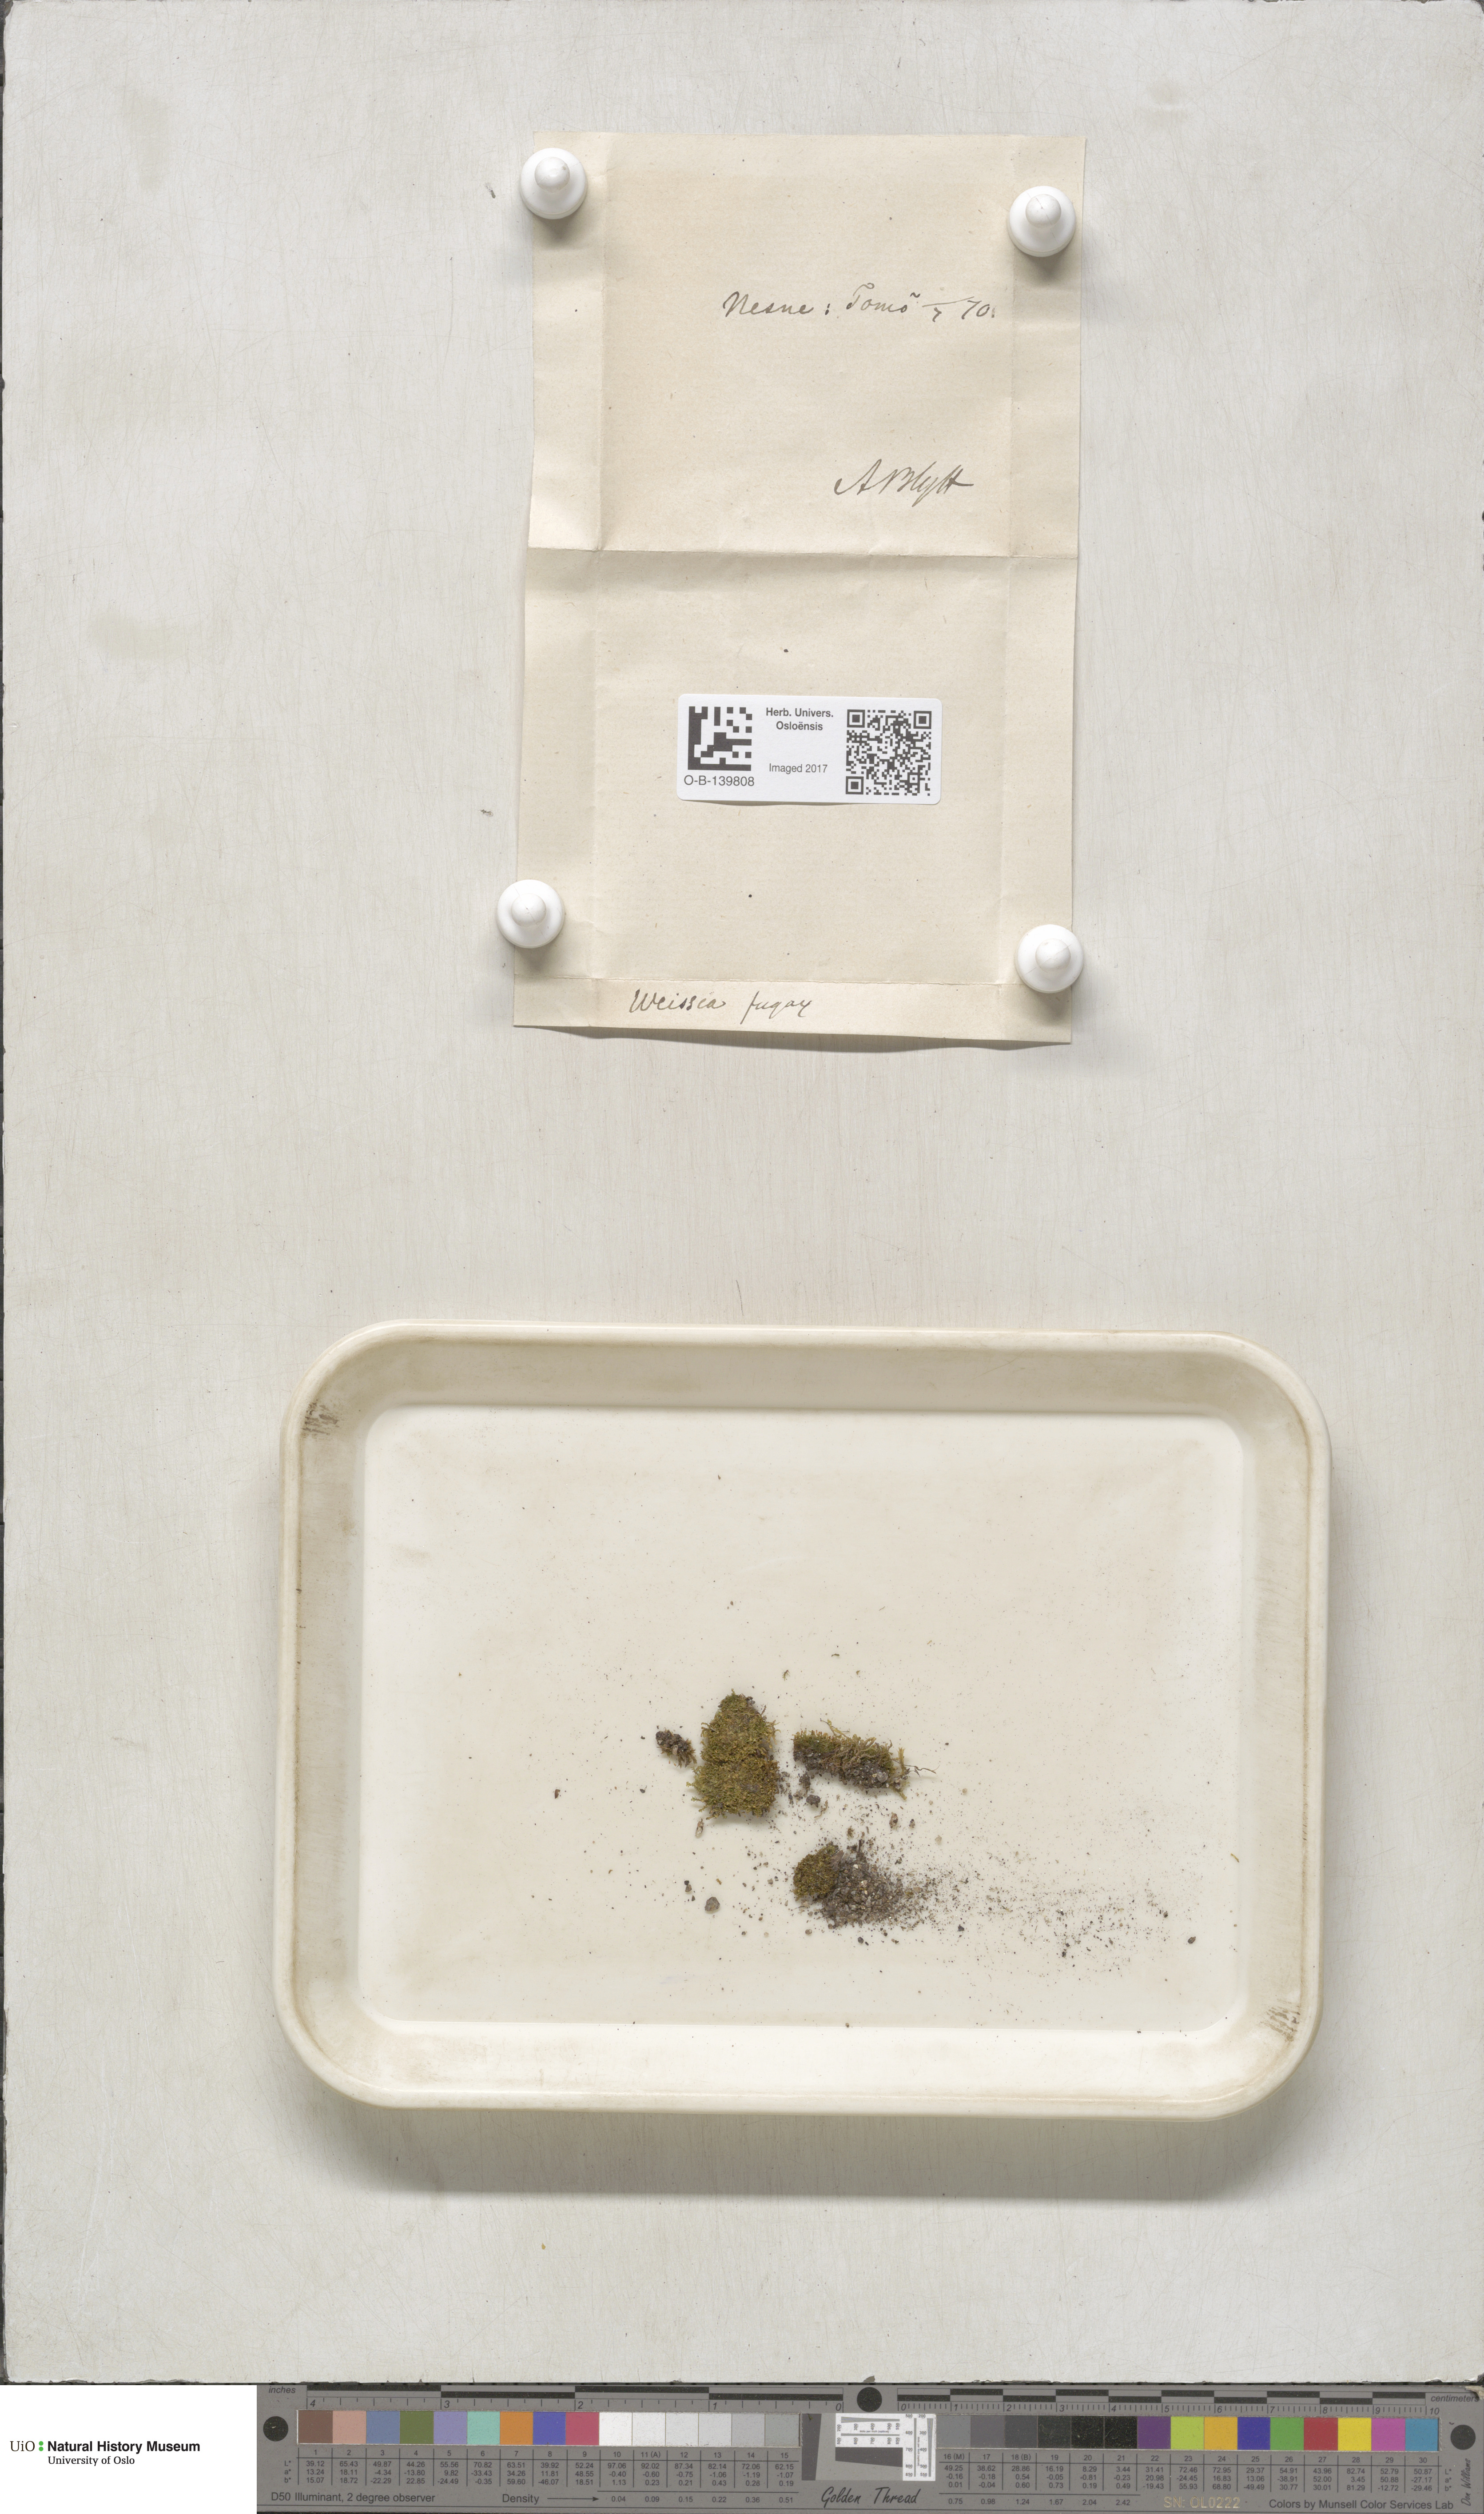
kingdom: Plantae
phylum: Bryophyta
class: Bryopsida
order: Dicranales
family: Rhabdoweisiaceae
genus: Rhabdoweisia
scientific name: Rhabdoweisia fugax
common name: Dwarf streak-moss
